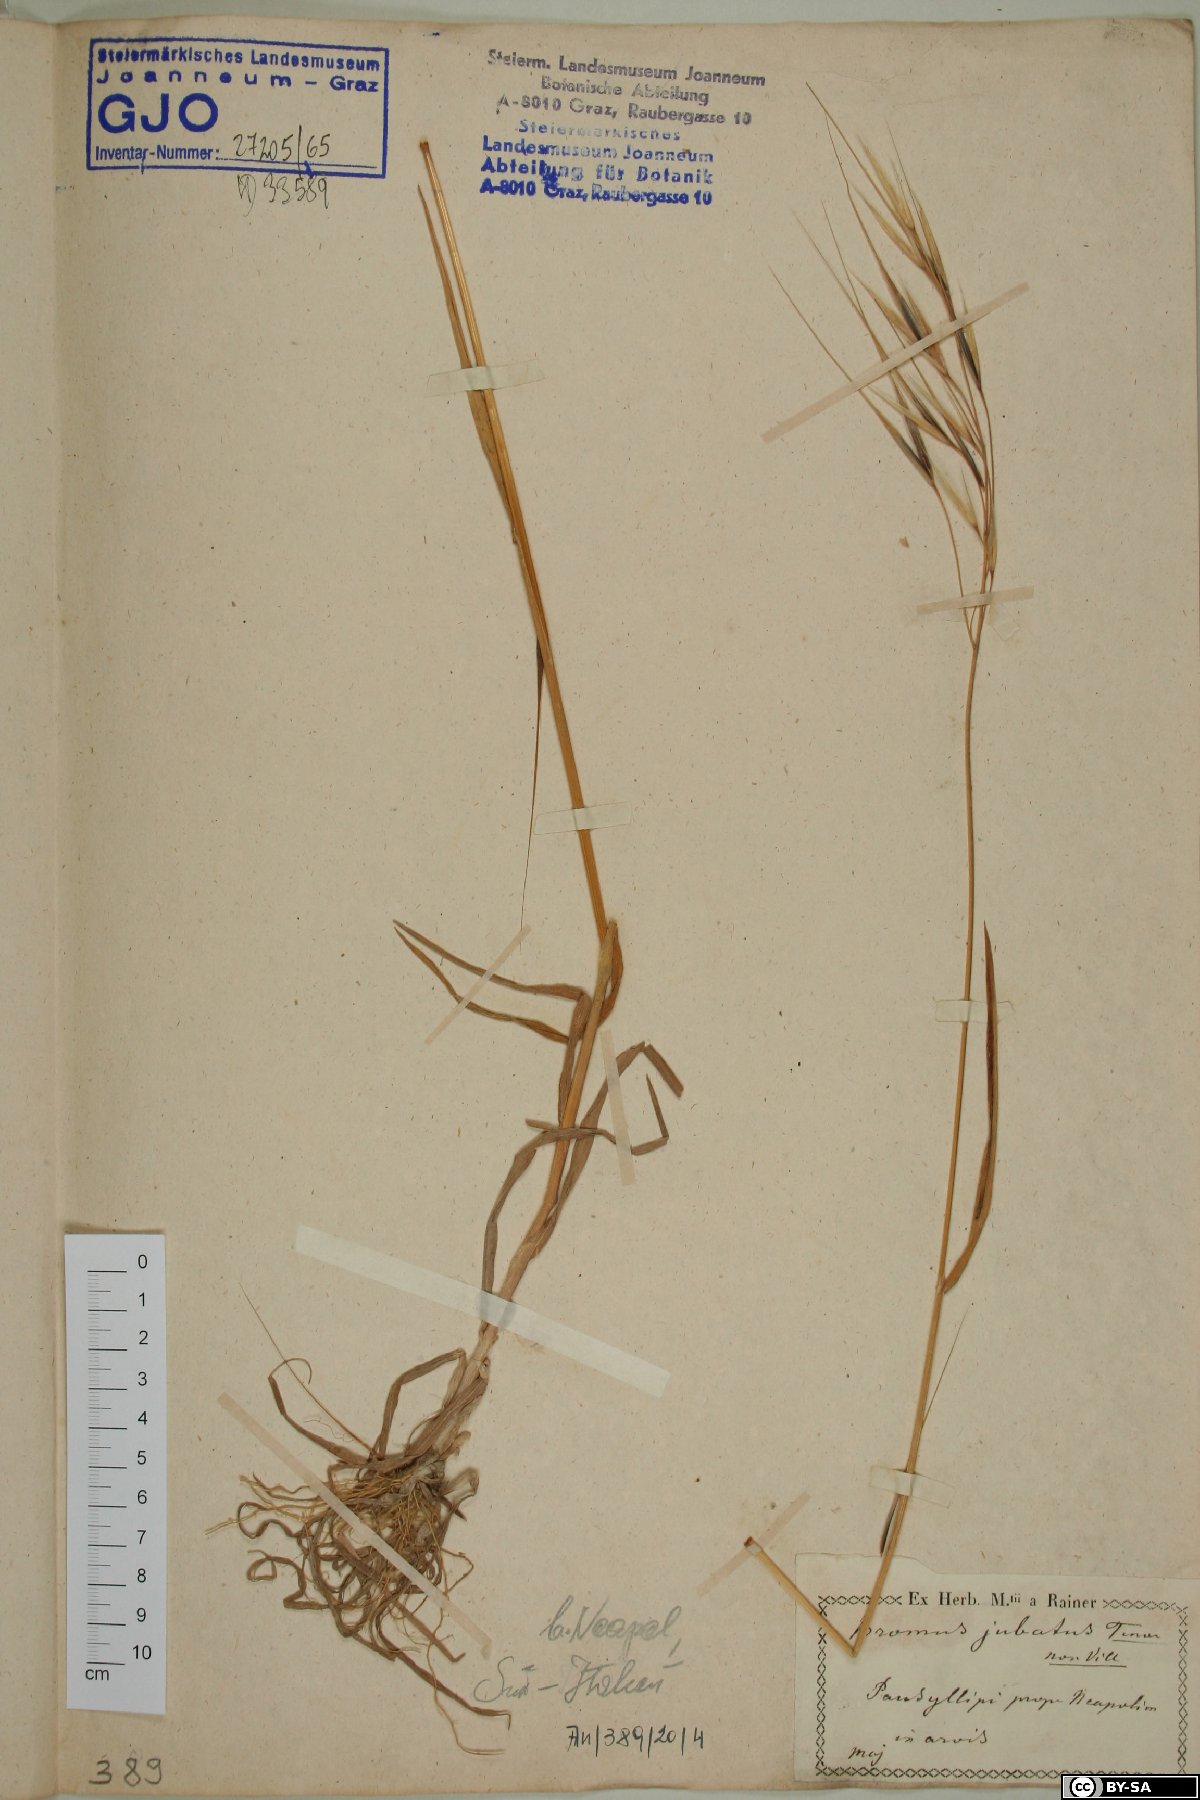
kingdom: Plantae
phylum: Tracheophyta
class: Liliopsida
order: Poales
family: Poaceae
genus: Bromus
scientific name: Bromus sterilis
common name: Poverty brome
